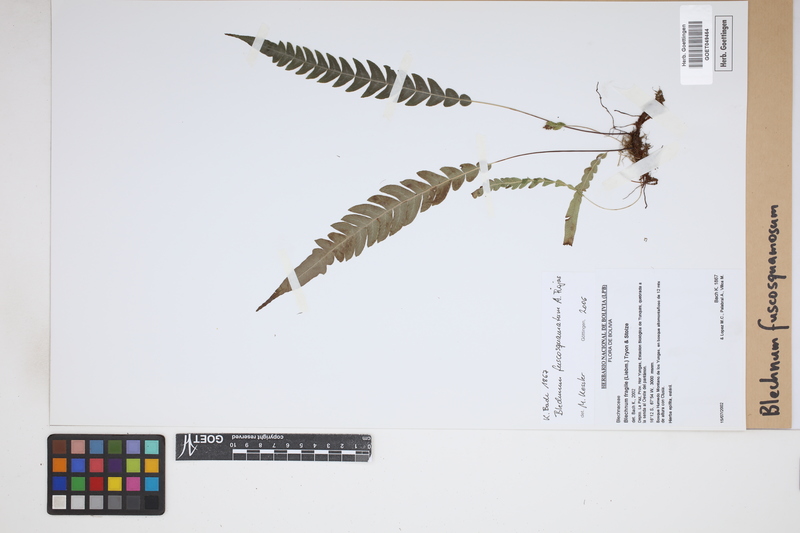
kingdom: Plantae
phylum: Tracheophyta
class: Polypodiopsida
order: Polypodiales
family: Blechnaceae
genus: Lomaridium
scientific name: Lomaridium fuscosquamosum
